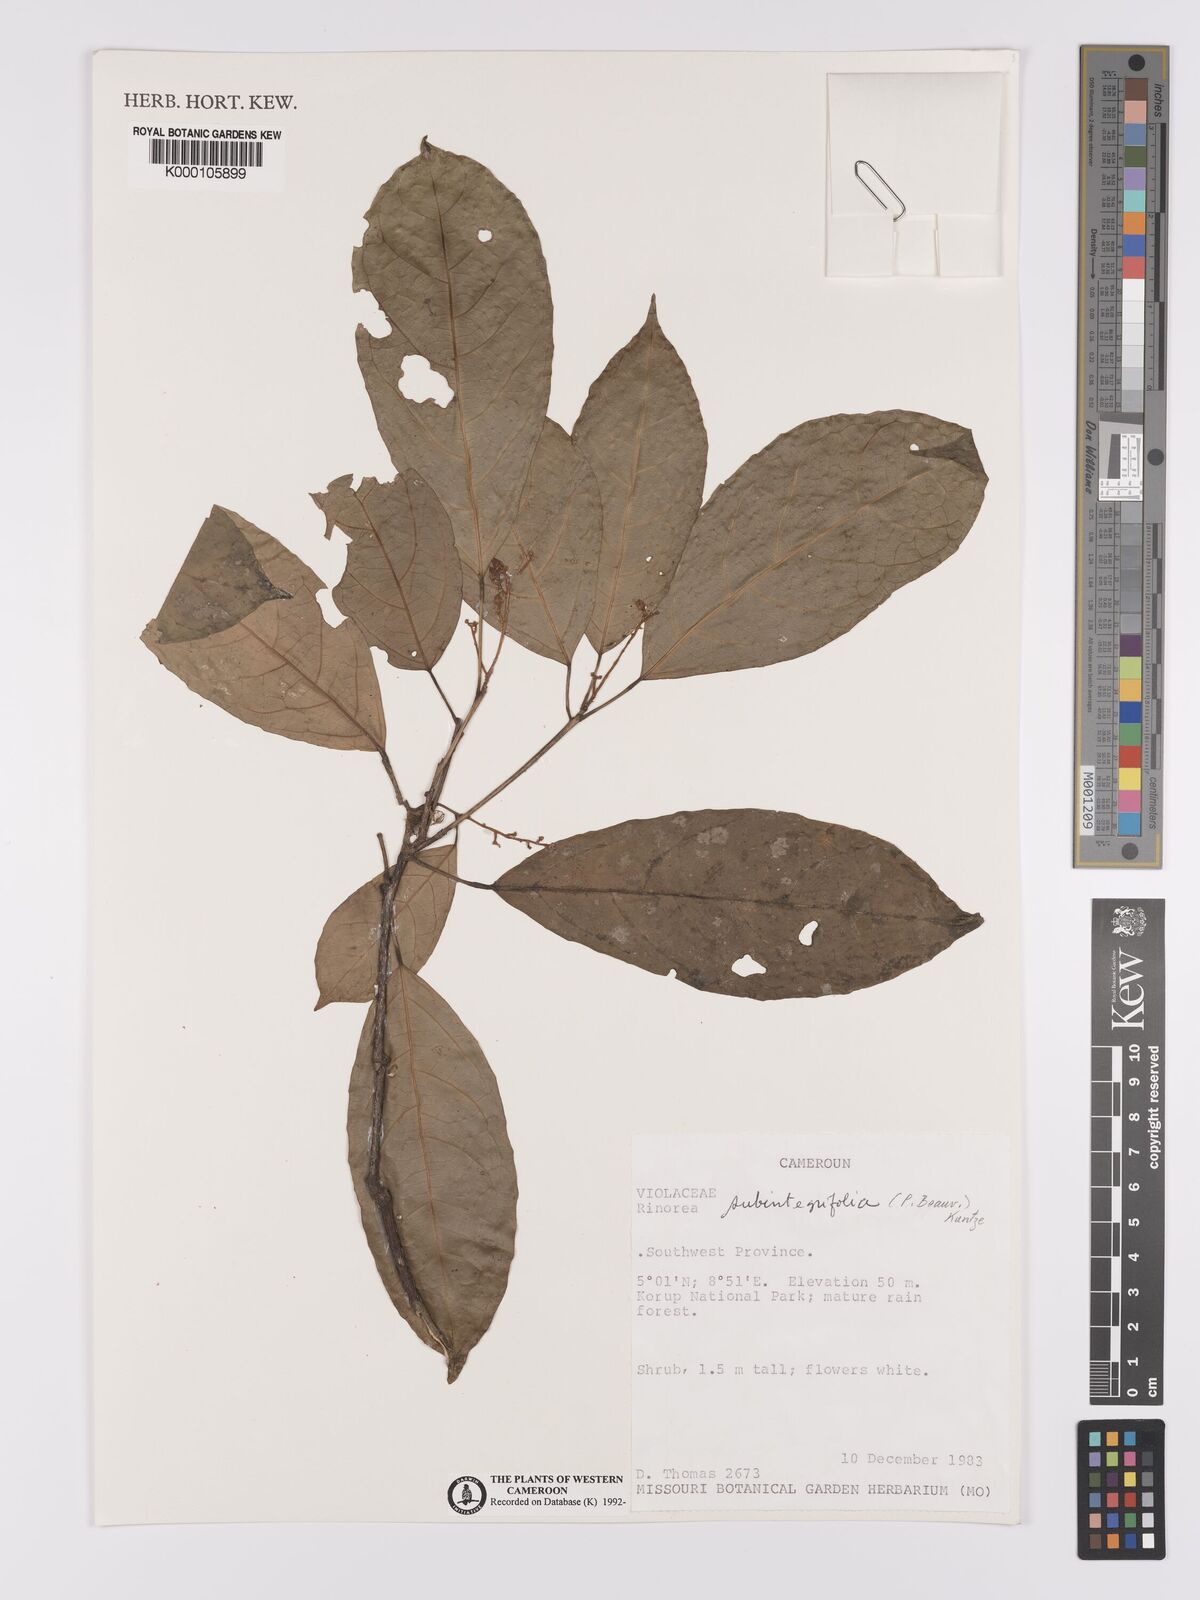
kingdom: Plantae
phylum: Tracheophyta
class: Magnoliopsida
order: Malpighiales
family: Violaceae
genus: Rinorea
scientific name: Rinorea subintegrifolia
